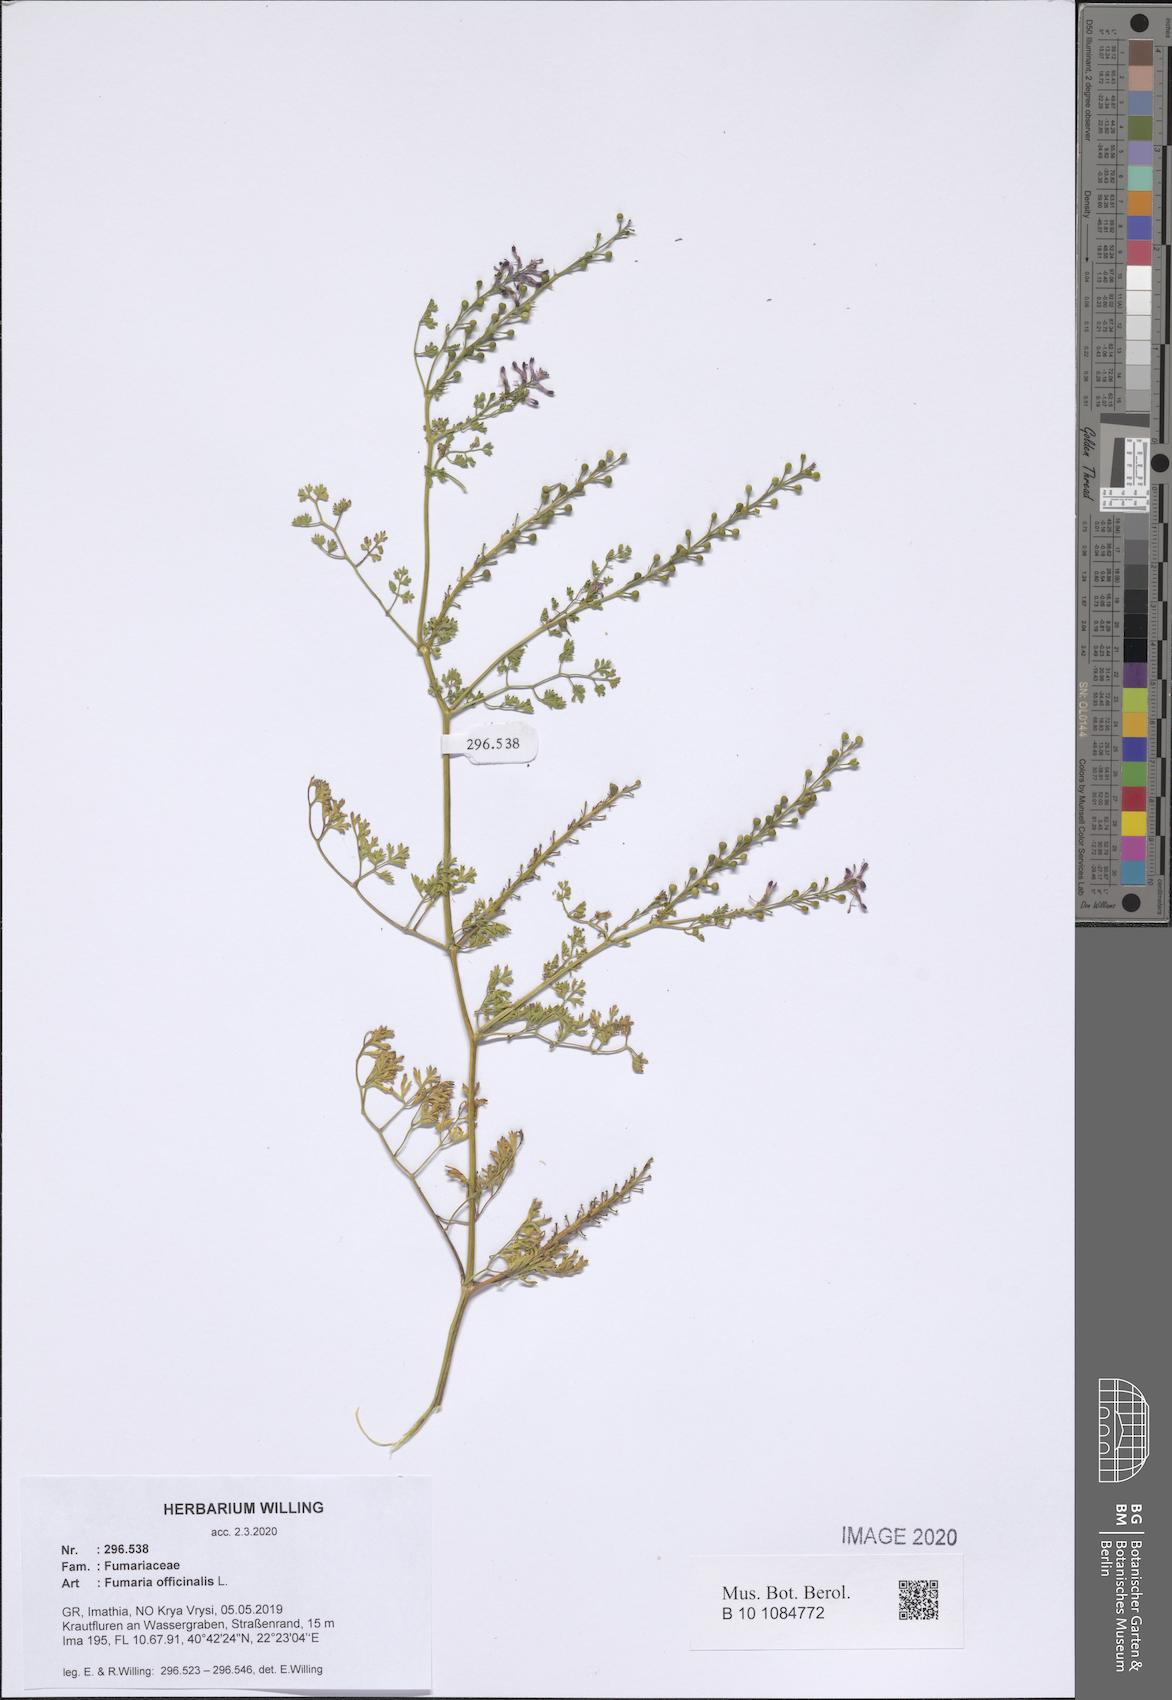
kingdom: Plantae
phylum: Tracheophyta
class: Magnoliopsida
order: Ranunculales
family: Papaveraceae
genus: Fumaria
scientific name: Fumaria officinalis
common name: Common fumitory
